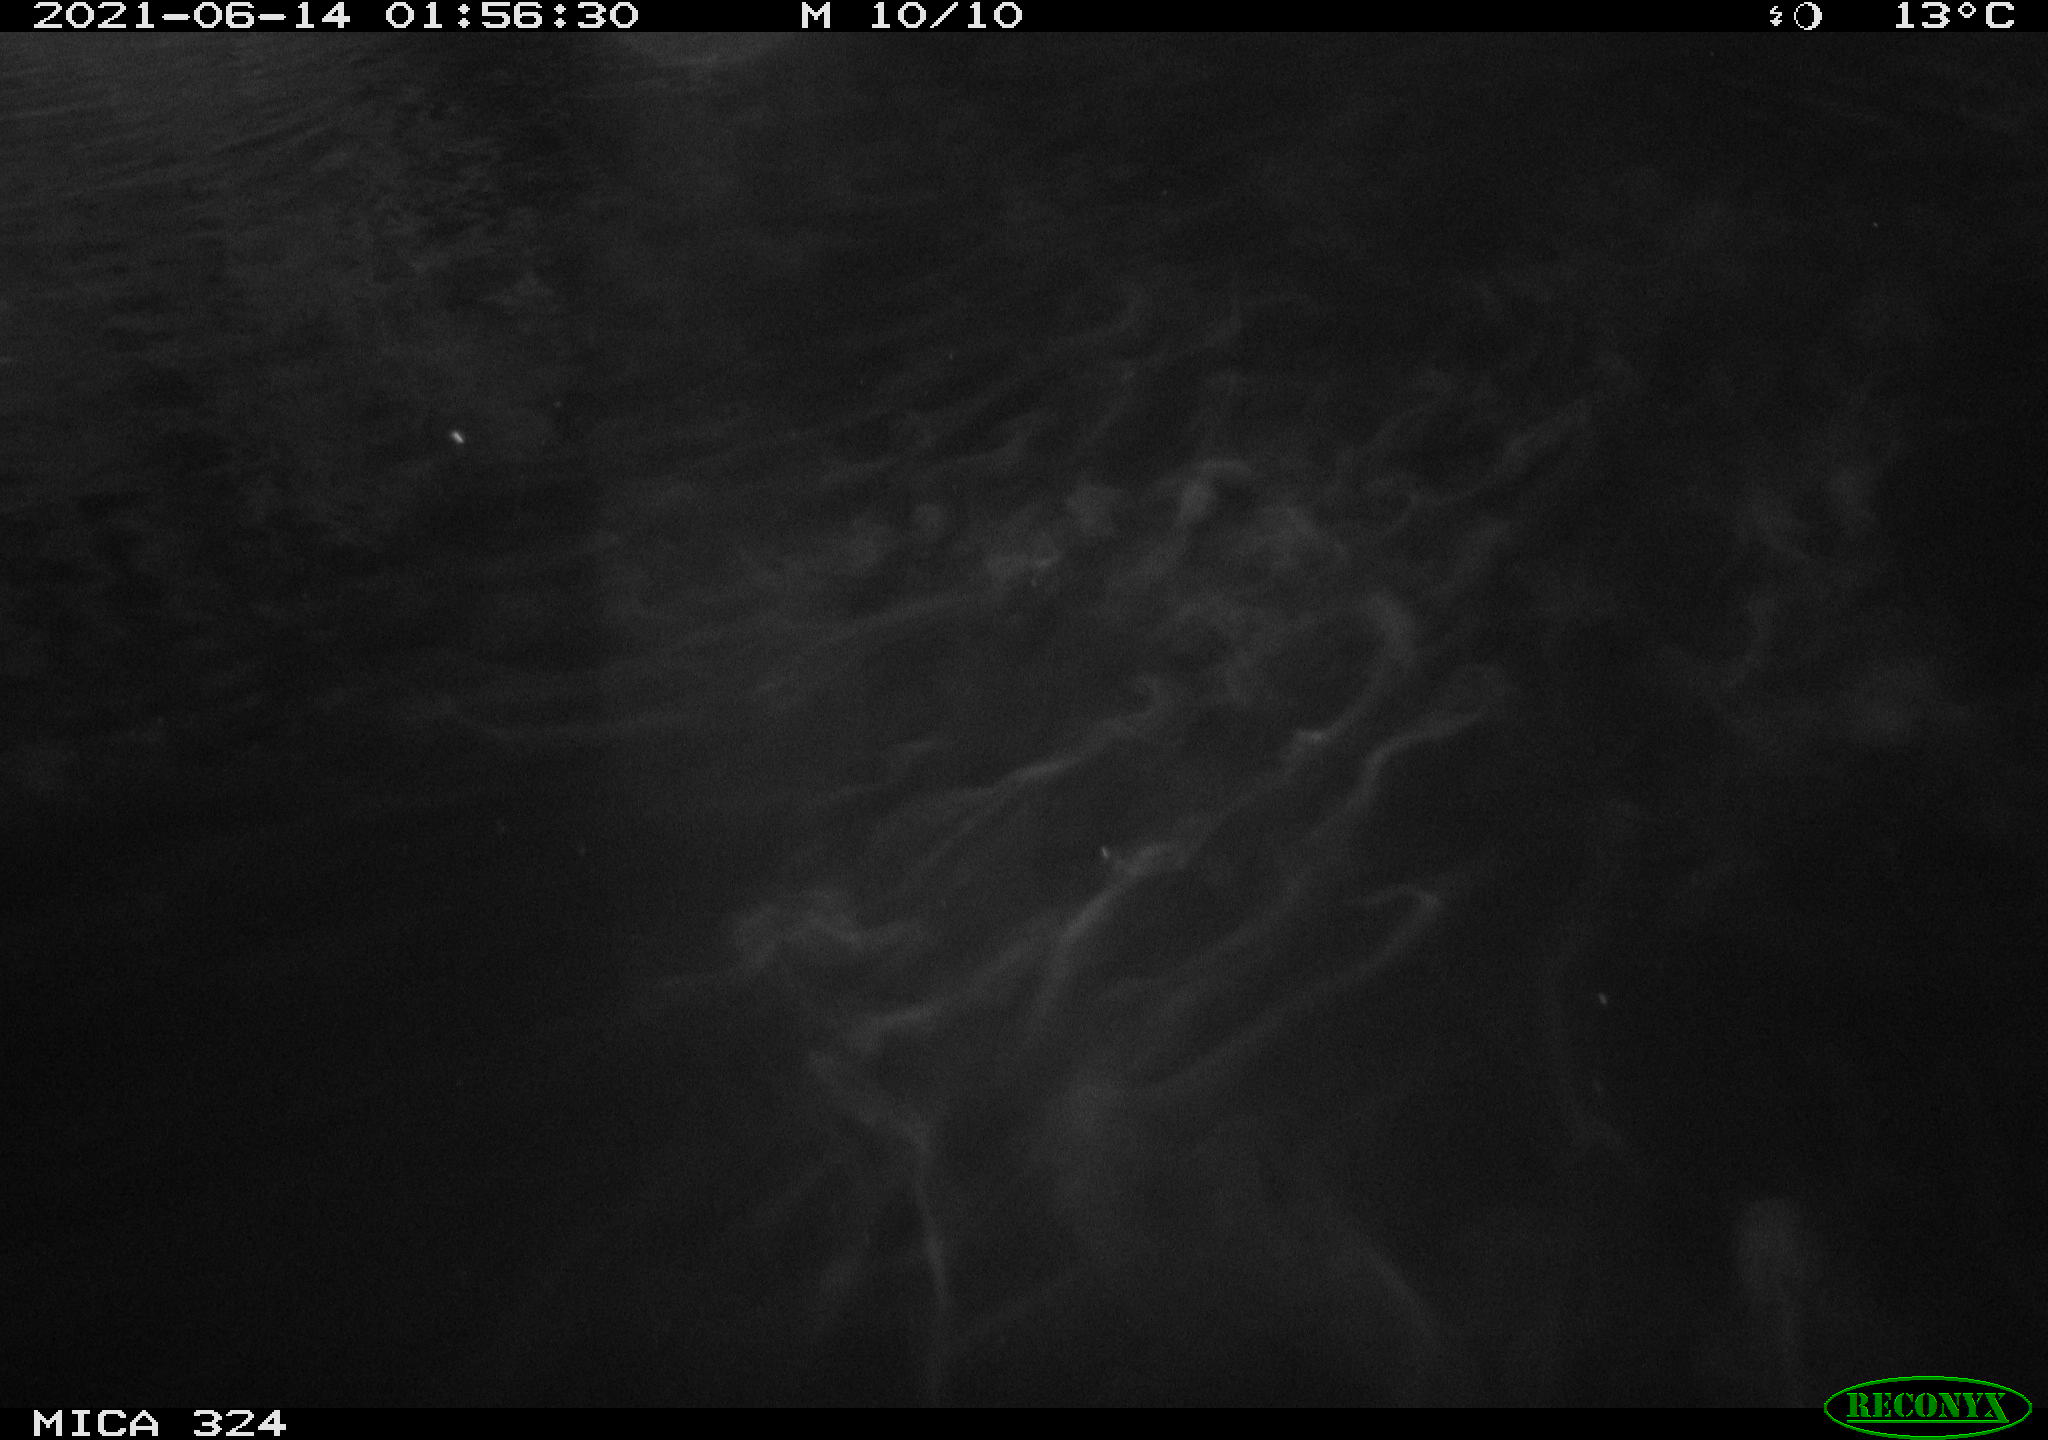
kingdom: Animalia
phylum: Chordata
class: Mammalia
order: Rodentia
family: Cricetidae
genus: Ondatra
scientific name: Ondatra zibethicus
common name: Muskrat
